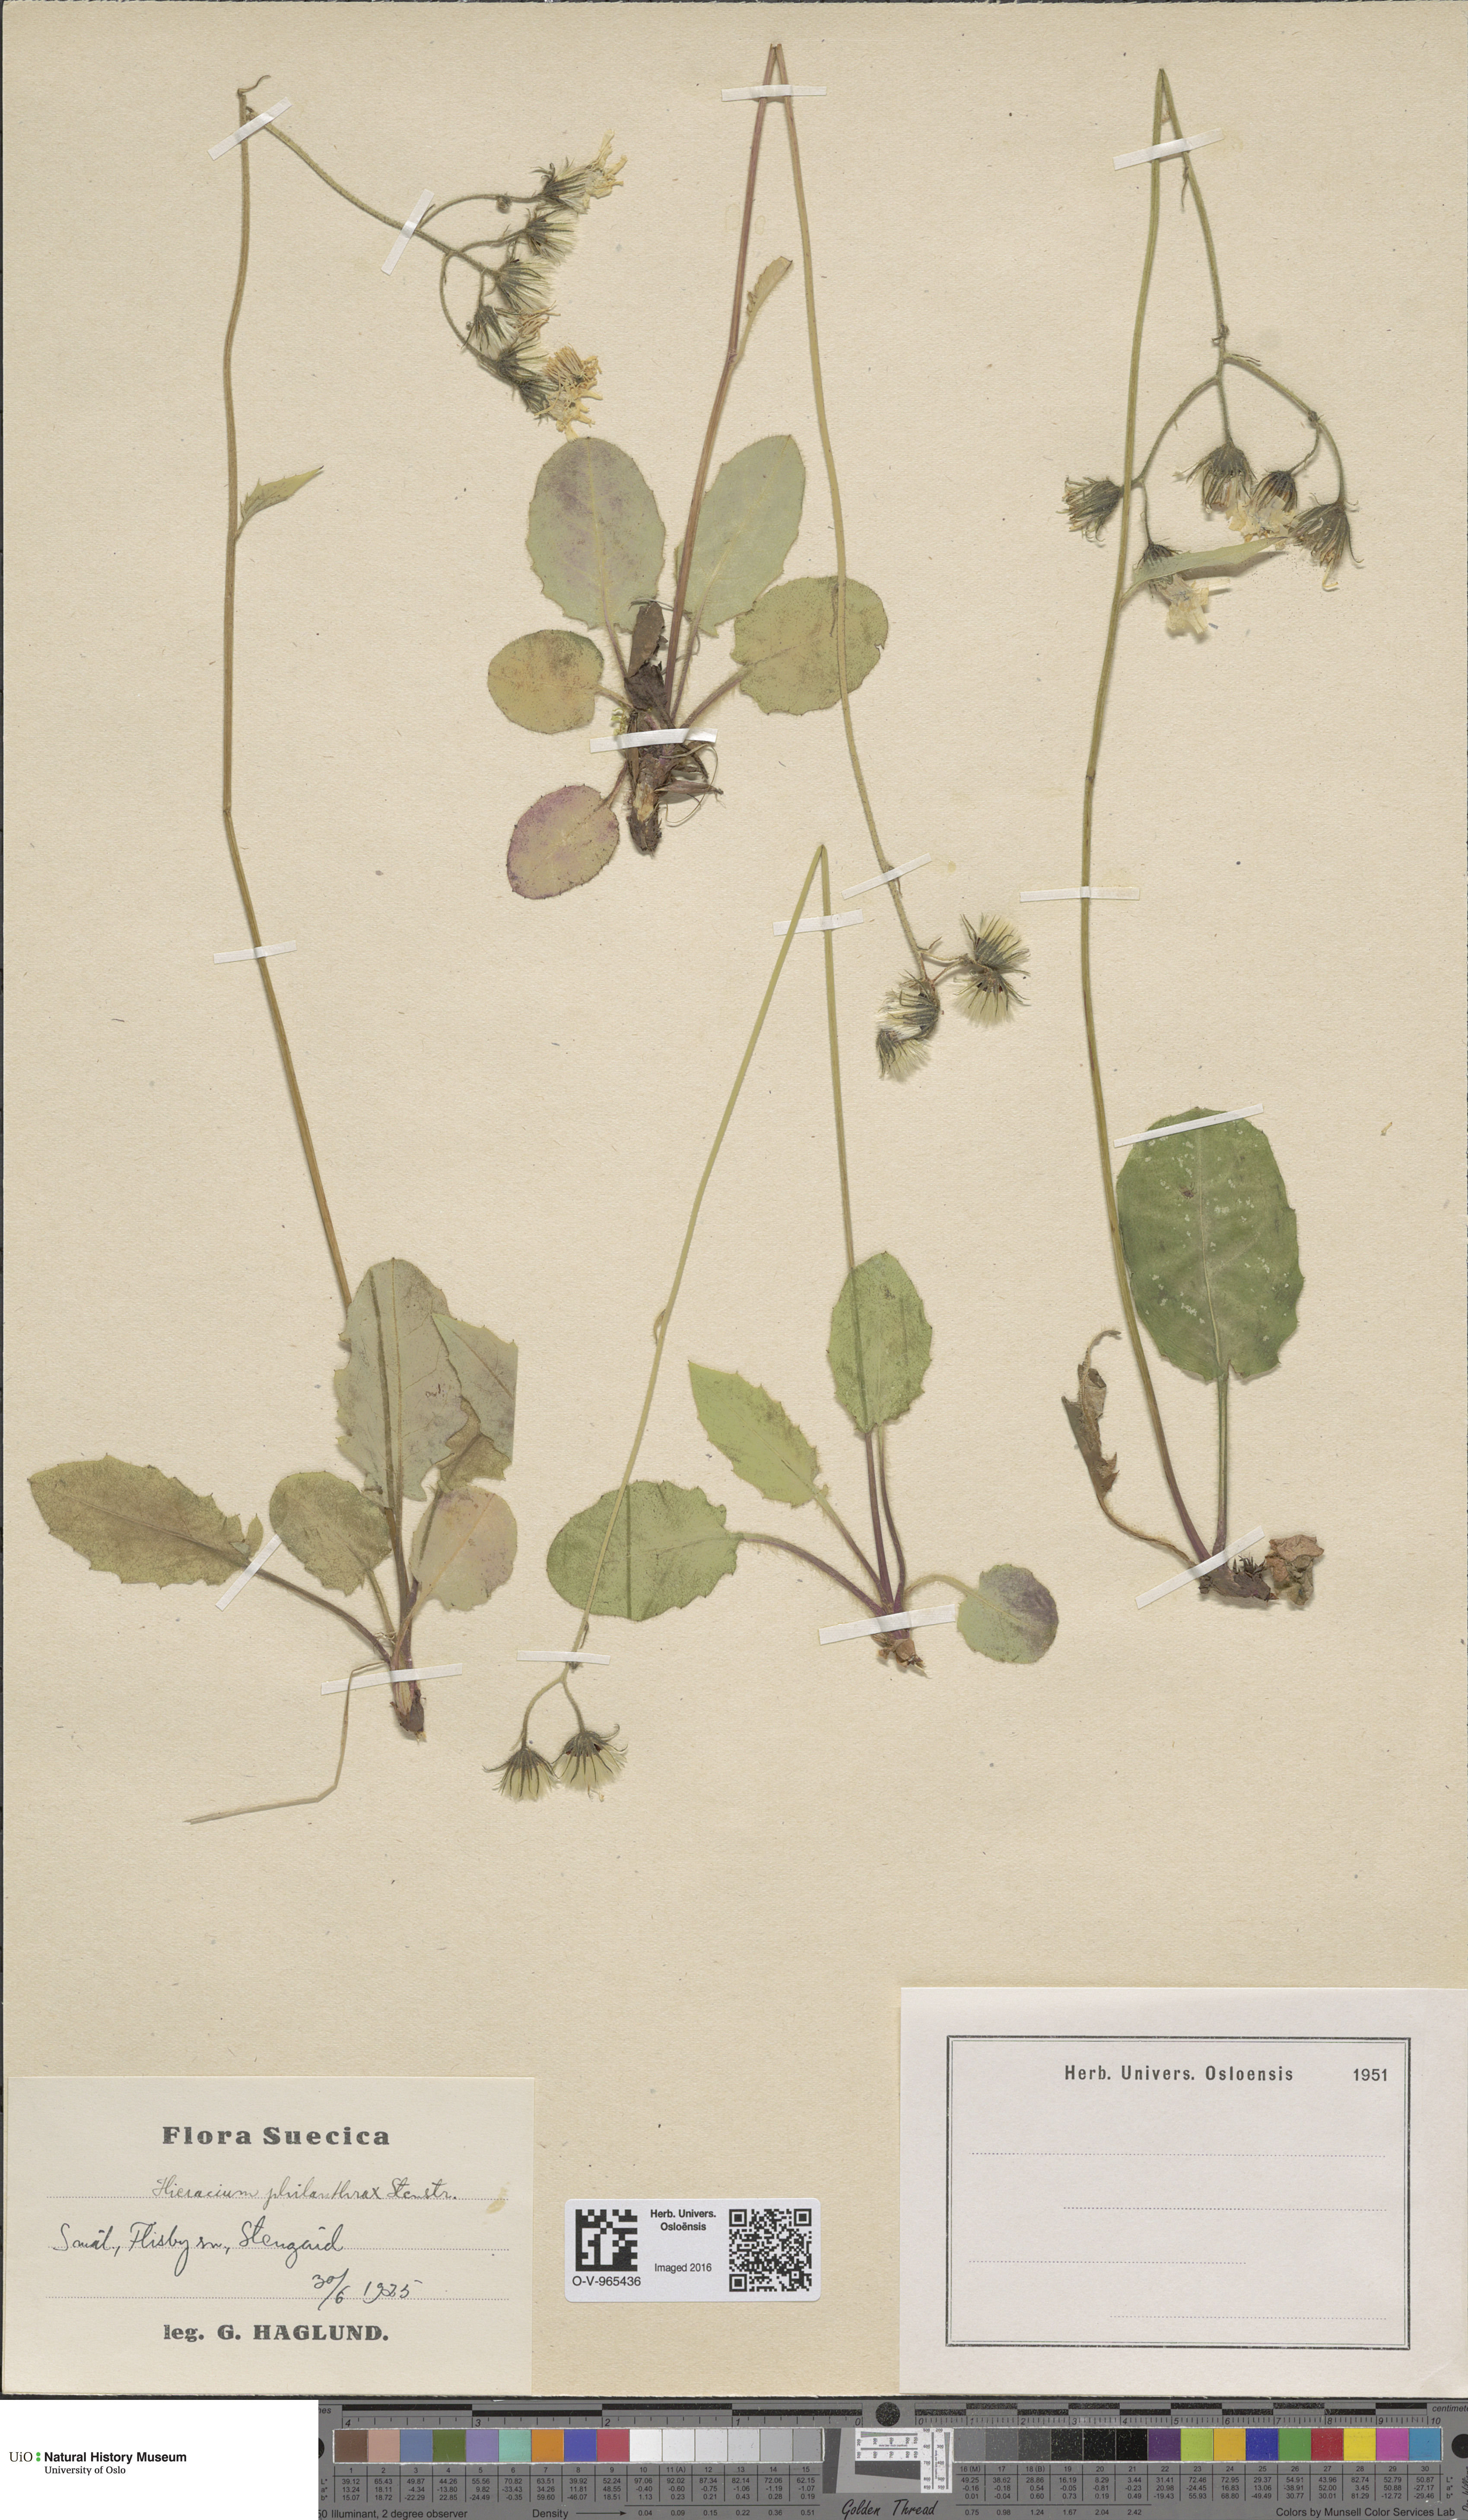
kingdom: Plantae
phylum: Tracheophyta
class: Magnoliopsida
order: Asterales
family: Asteraceae
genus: Hieracium
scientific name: Hieracium philanthrax
